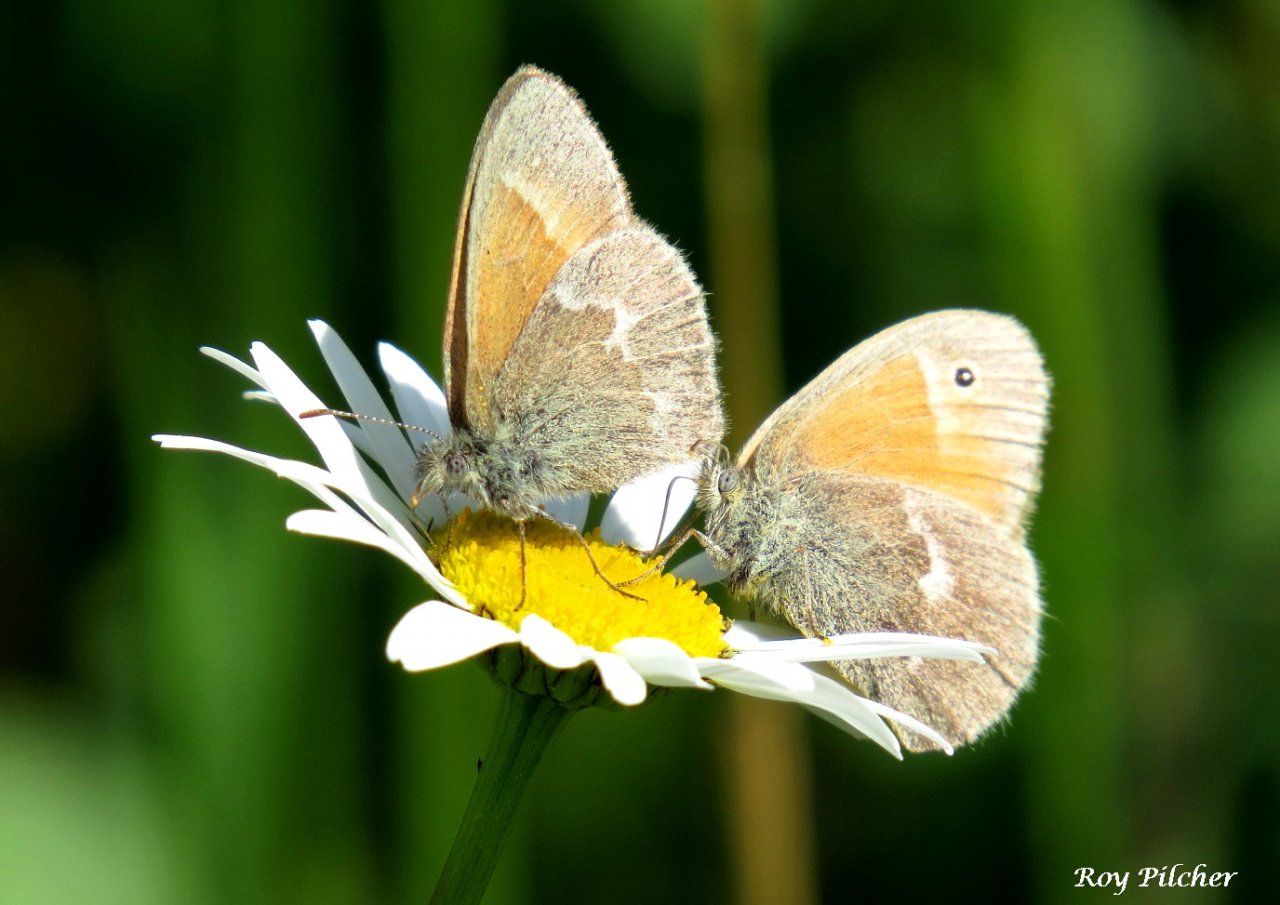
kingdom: Animalia
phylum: Arthropoda
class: Insecta
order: Lepidoptera
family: Nymphalidae
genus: Coenonympha
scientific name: Coenonympha tullia
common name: Large Heath
